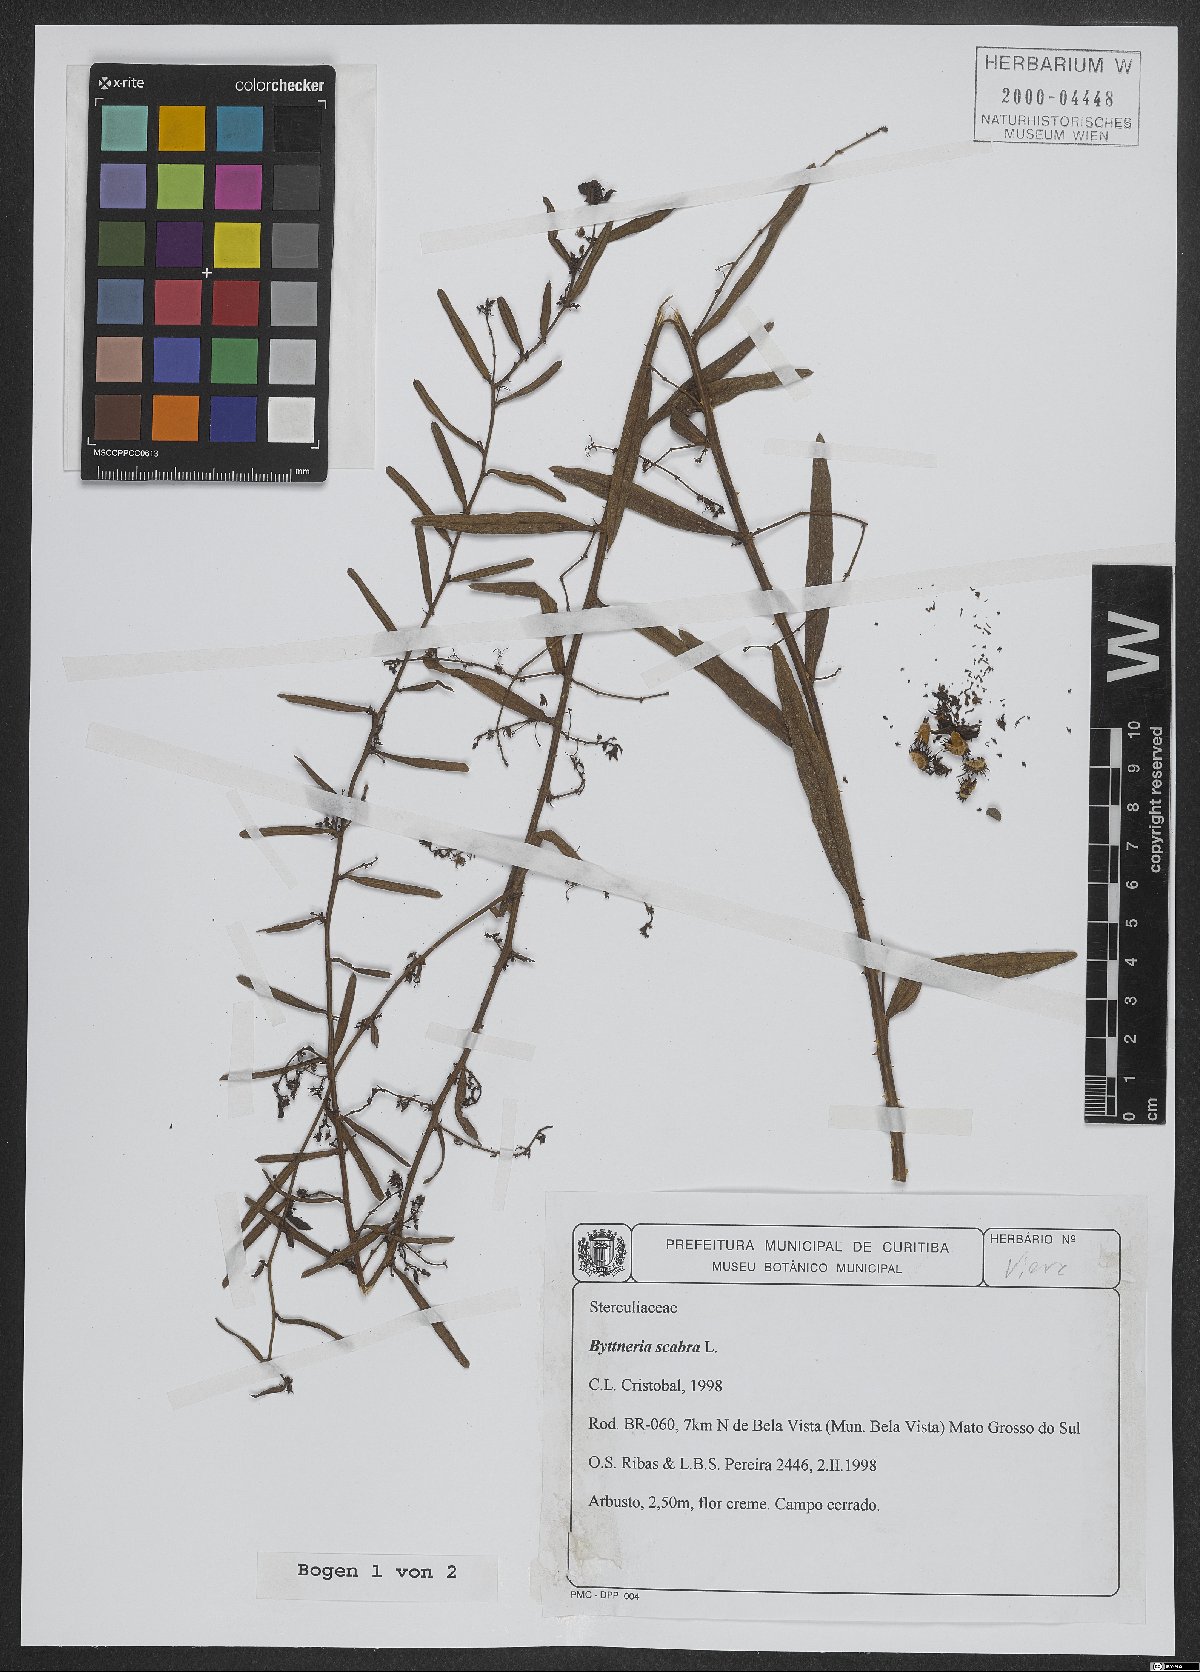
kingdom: Plantae
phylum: Tracheophyta
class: Magnoliopsida
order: Malvales
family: Malvaceae
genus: Byttneria
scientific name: Byttneria scabra
